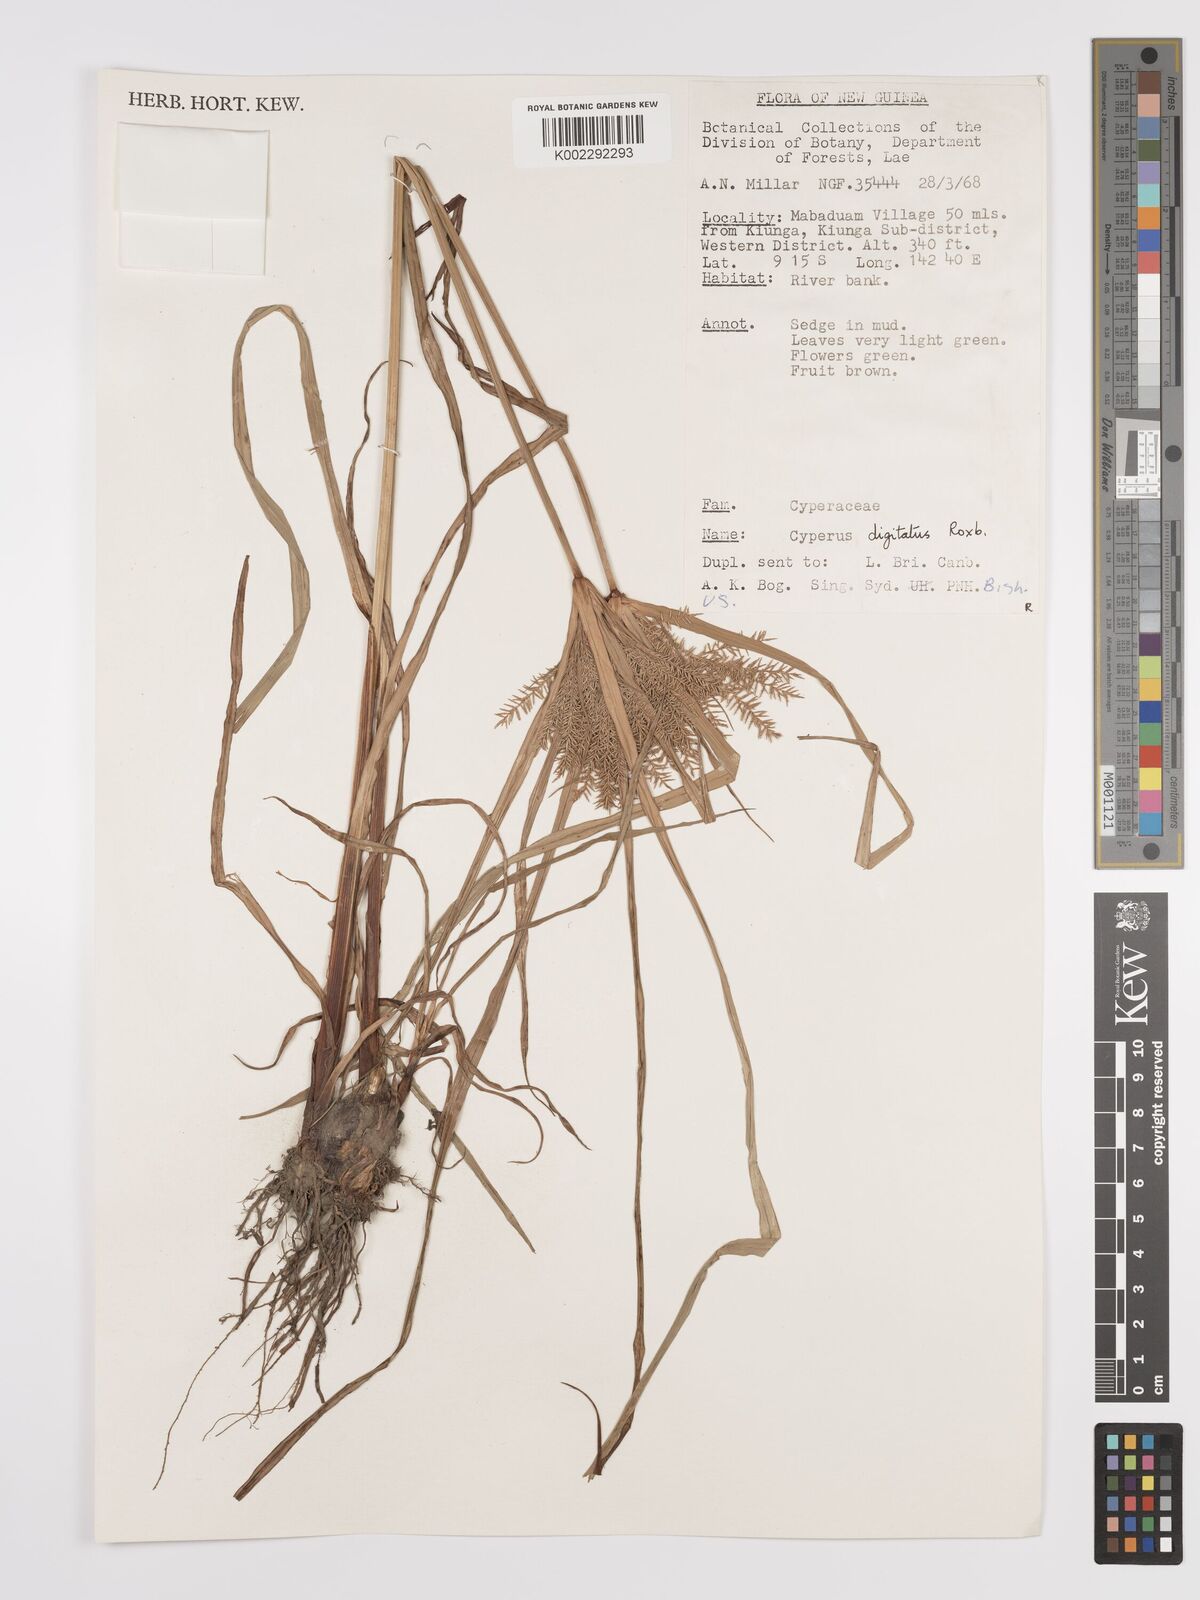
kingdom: Plantae
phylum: Tracheophyta
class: Liliopsida
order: Poales
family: Cyperaceae
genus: Cyperus
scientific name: Cyperus digitatus
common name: Finger flatsedge
